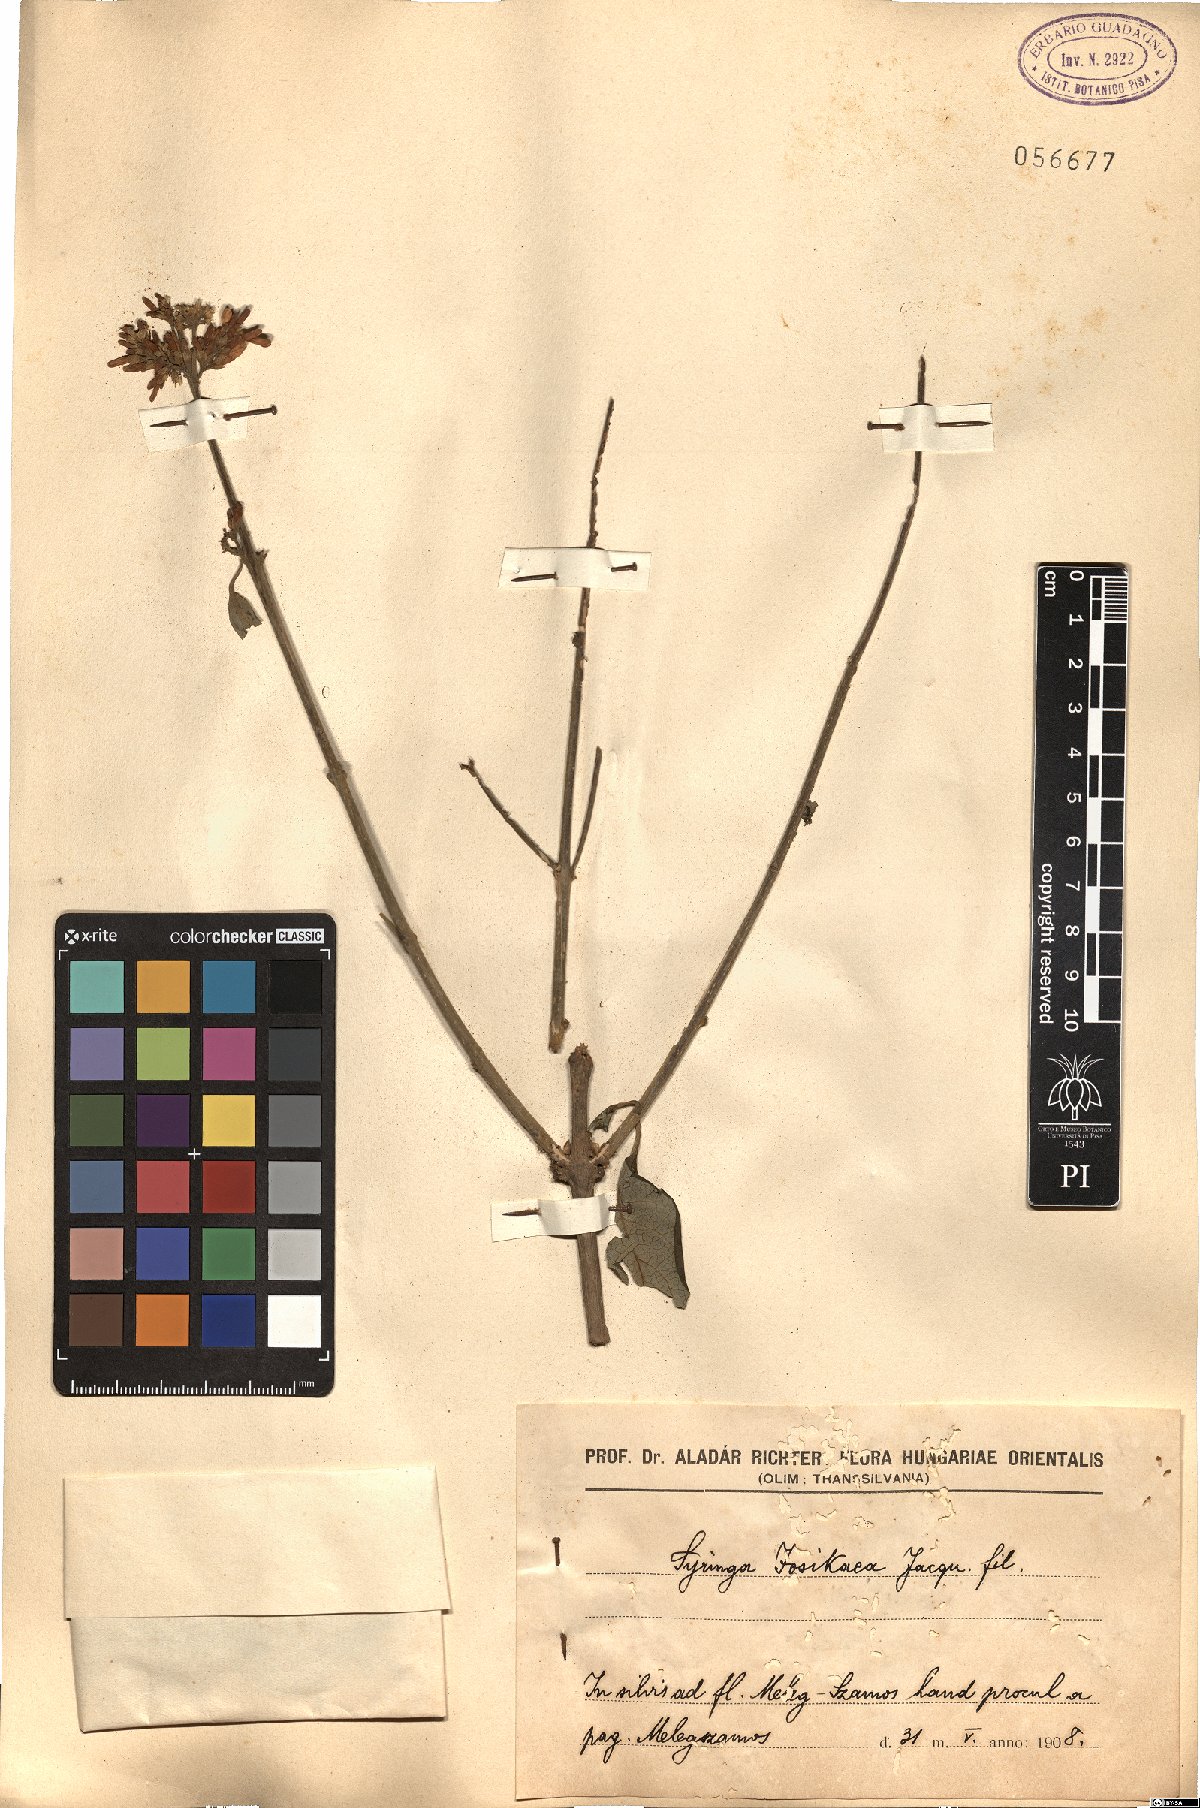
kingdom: Plantae
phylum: Tracheophyta
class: Magnoliopsida
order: Lamiales
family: Oleaceae
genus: Syringa
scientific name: Syringa josikaea
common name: Hungarian lilac
